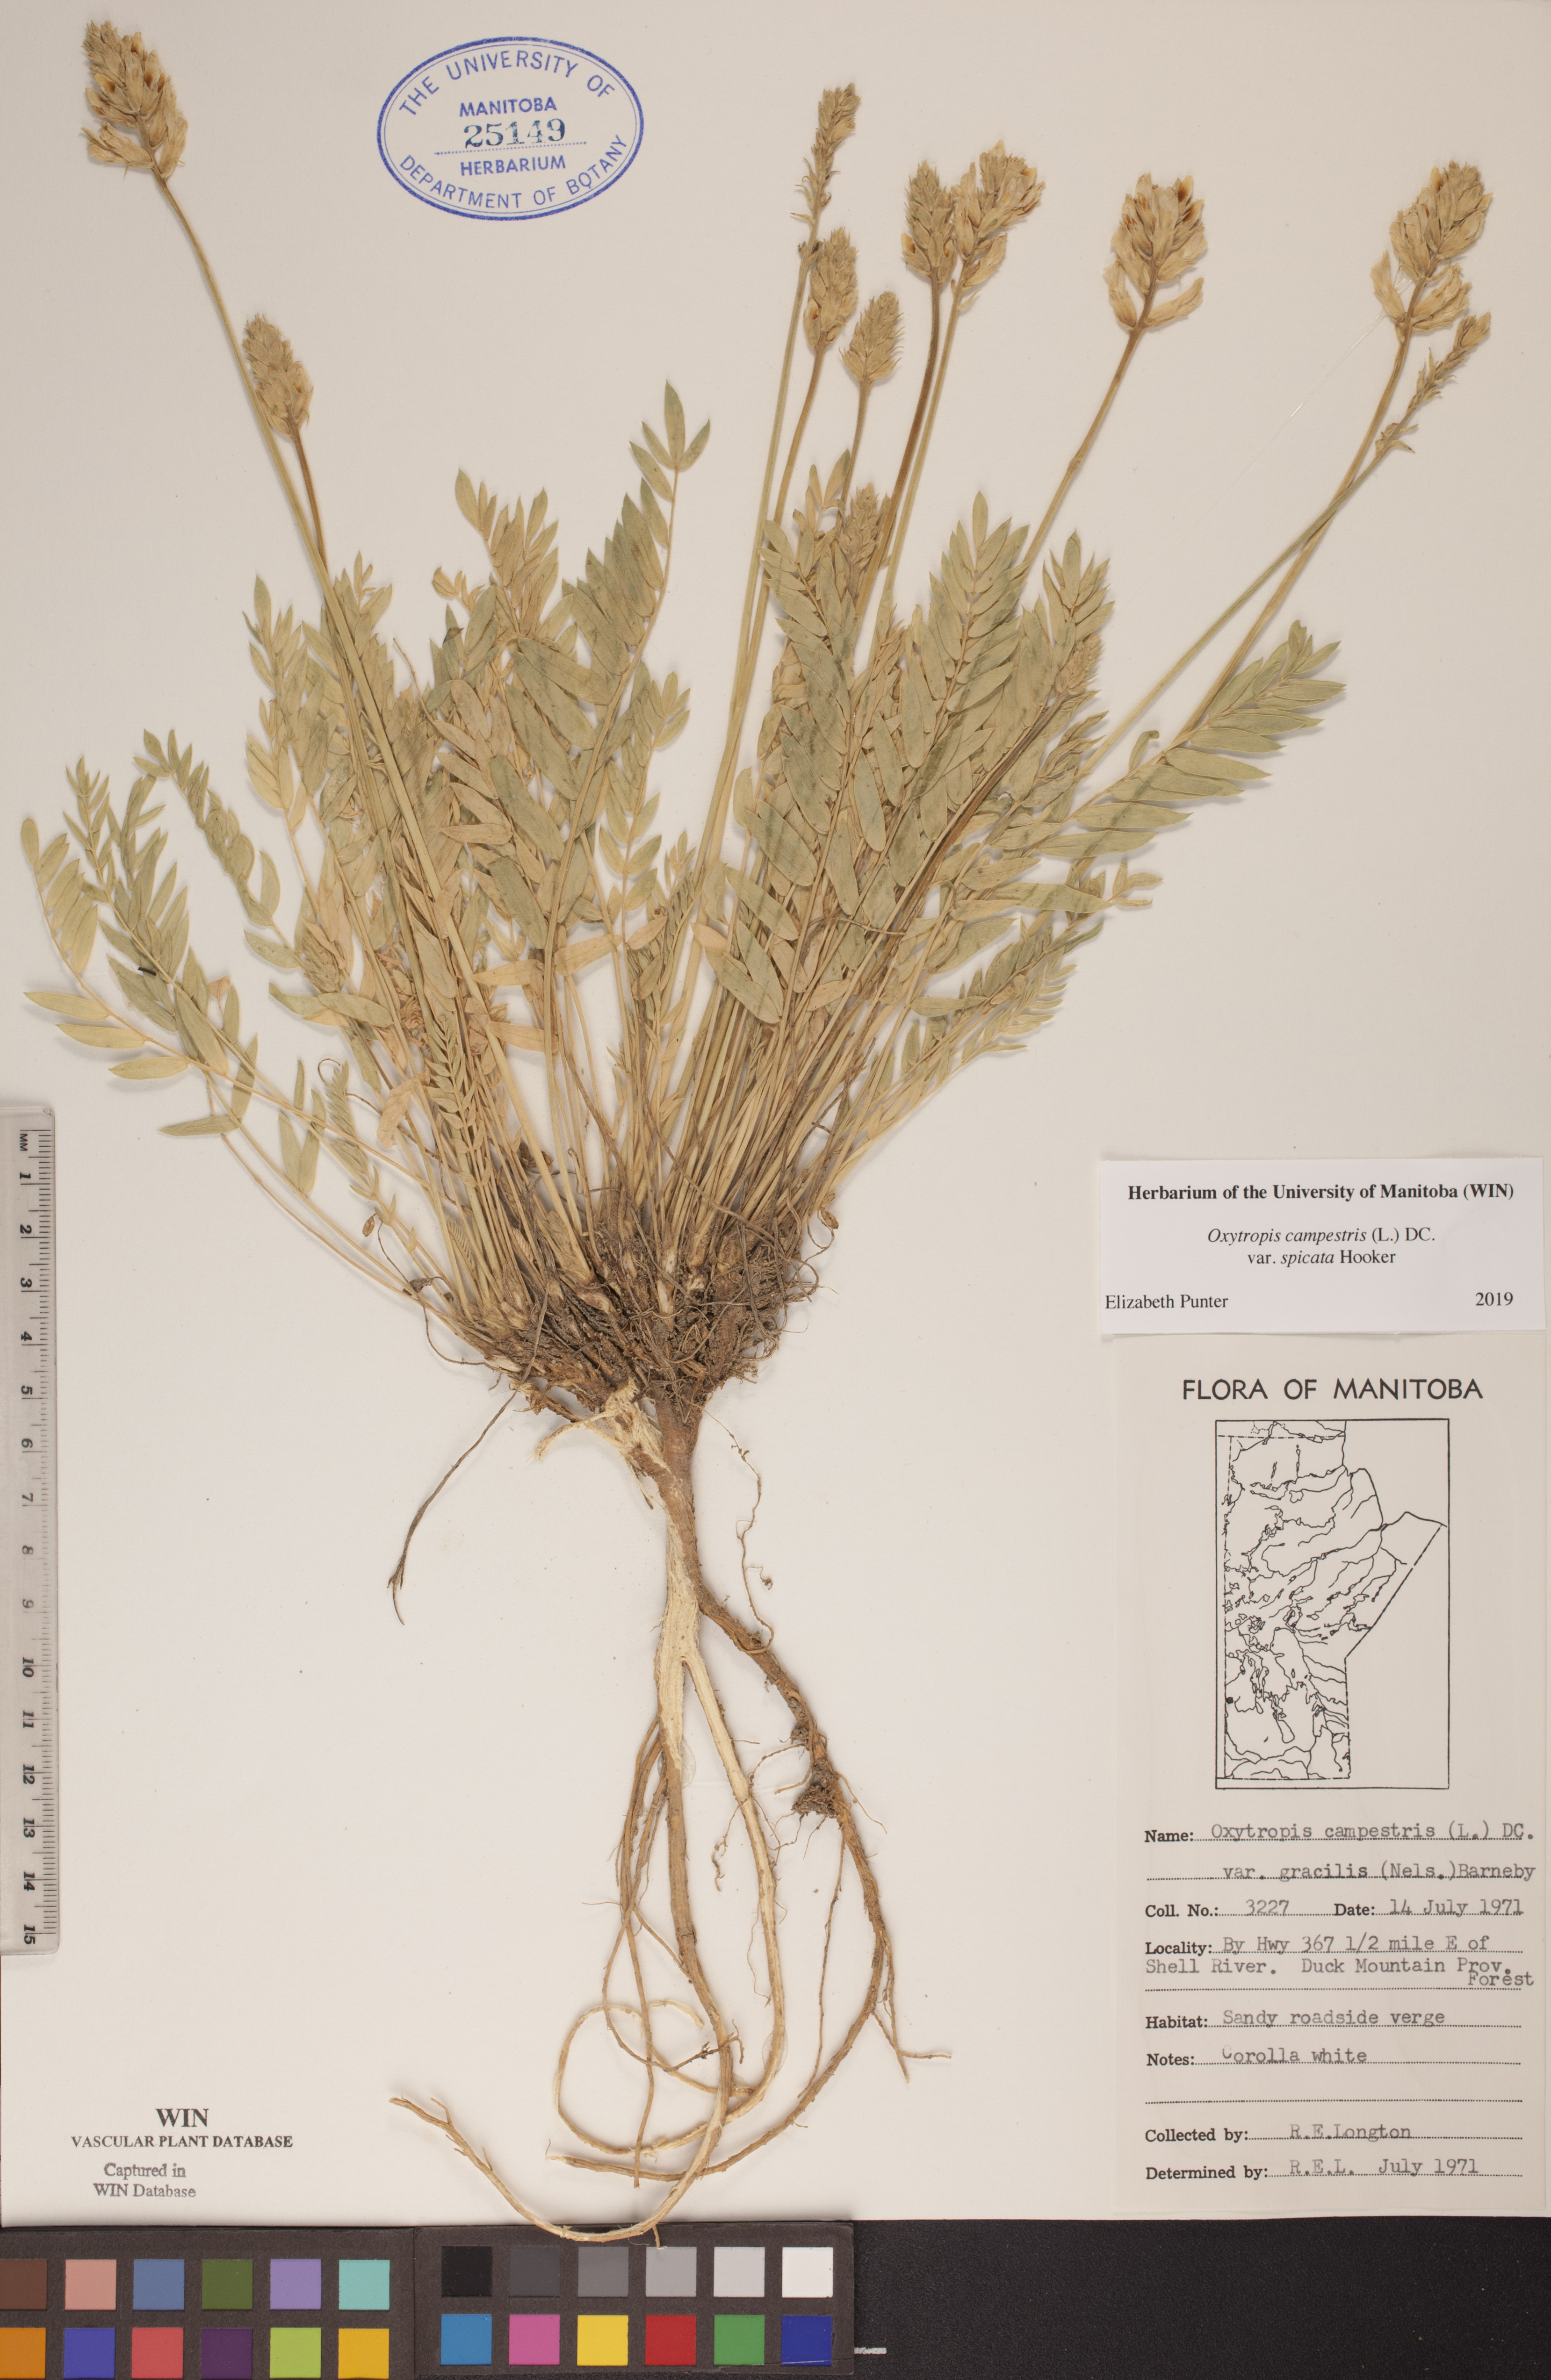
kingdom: Plantae
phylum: Tracheophyta
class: Magnoliopsida
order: Fabales
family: Fabaceae
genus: Oxytropis
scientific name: Oxytropis campestris
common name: Field locoweed
